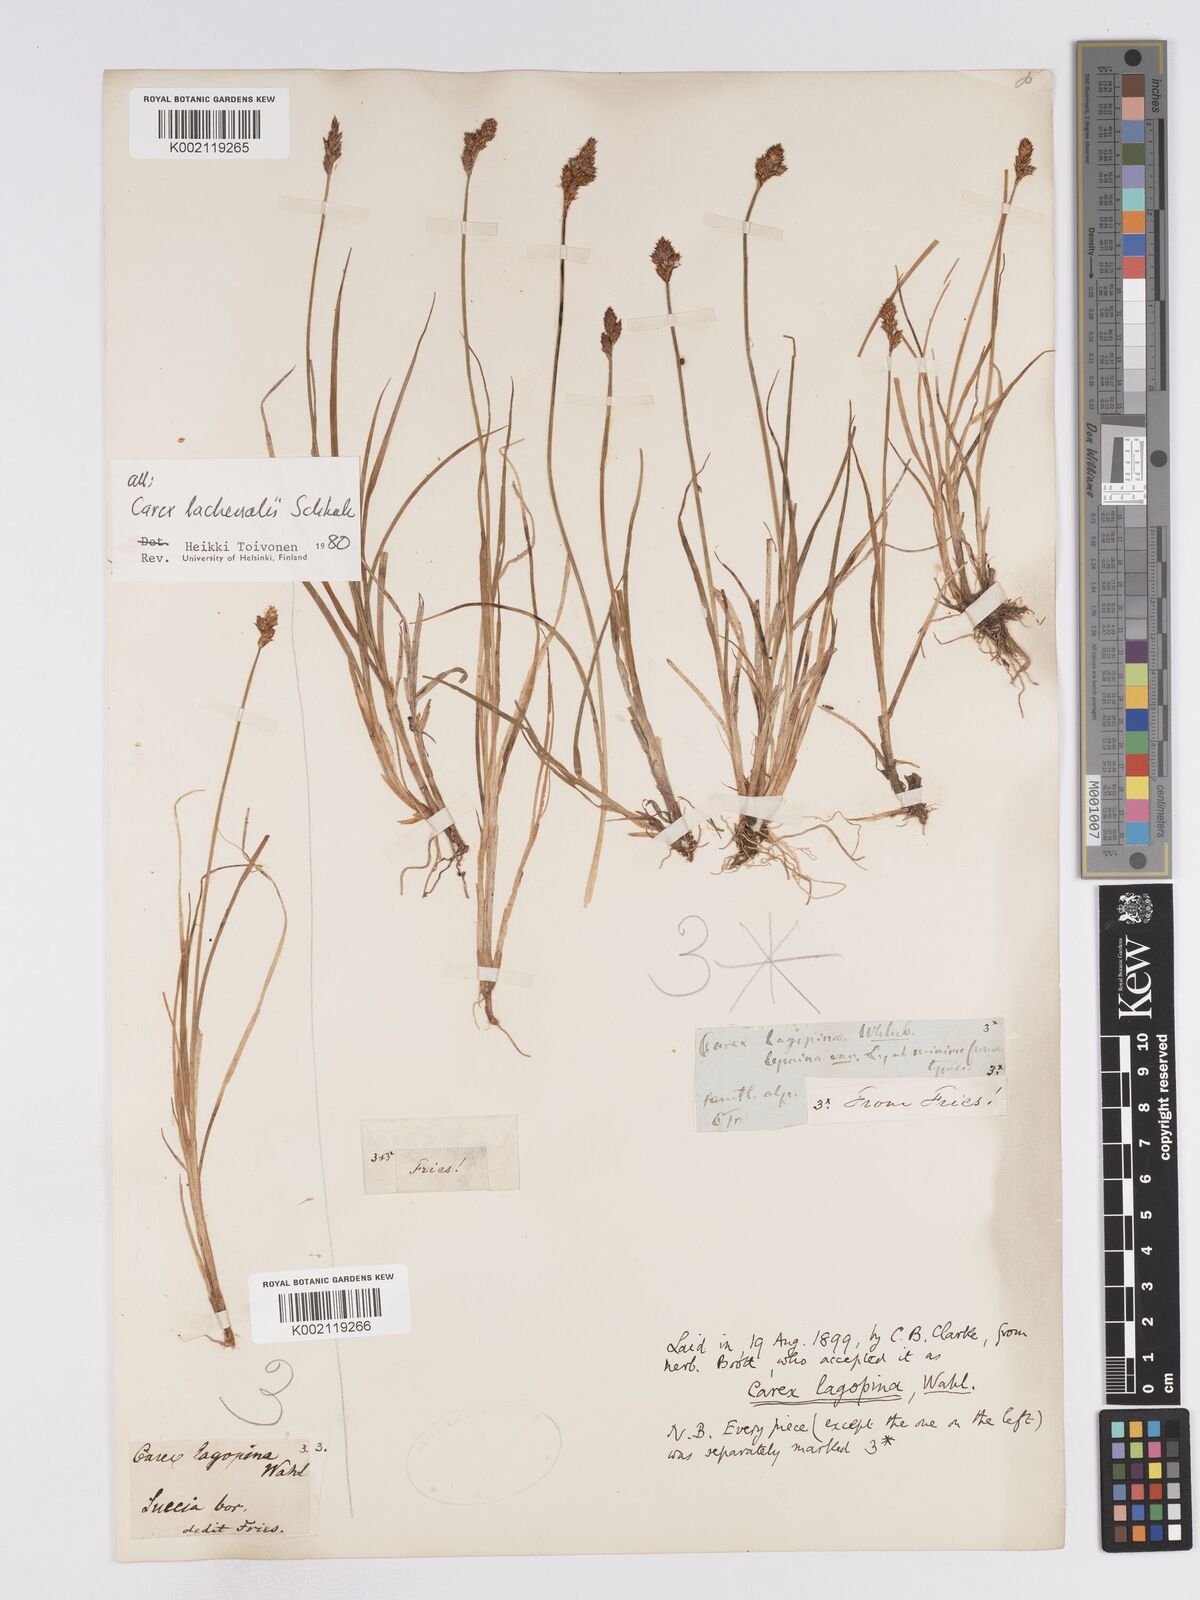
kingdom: Plantae
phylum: Tracheophyta
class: Liliopsida
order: Poales
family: Cyperaceae
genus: Carex
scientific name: Carex lachenalii
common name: Hare's-foot sedge
